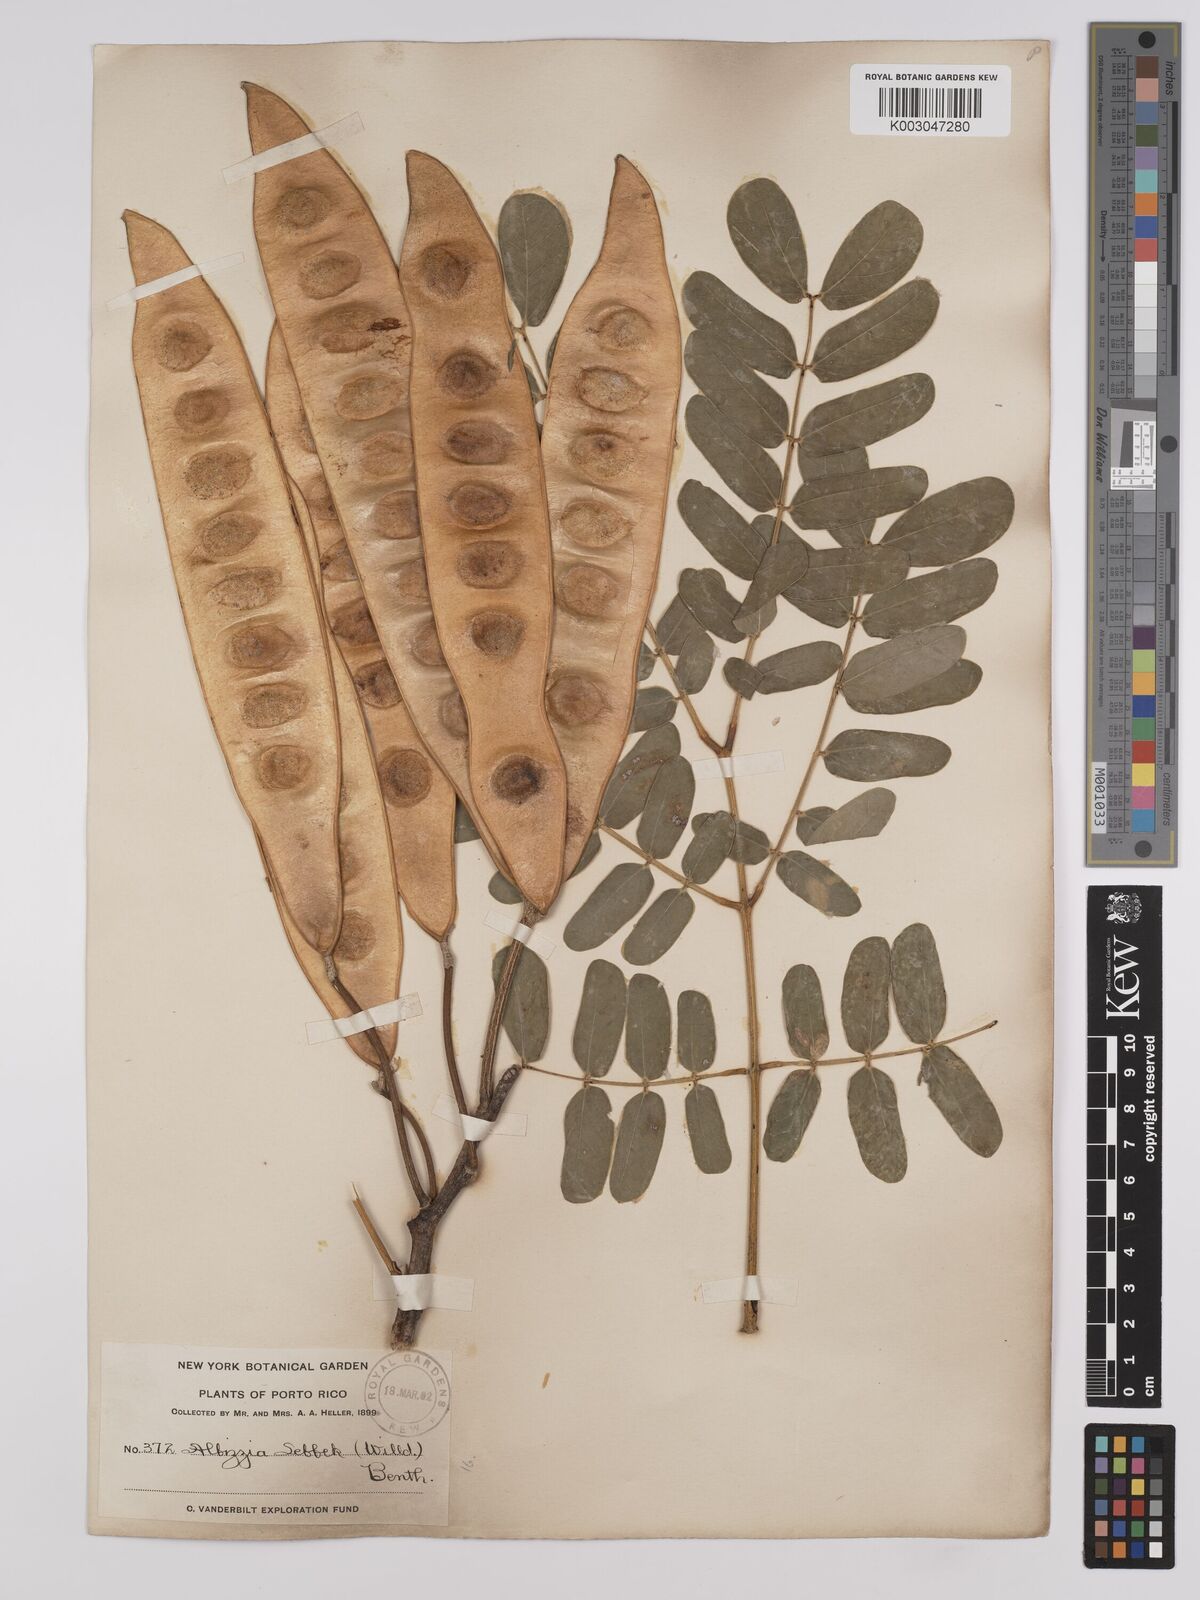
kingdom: Plantae
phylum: Tracheophyta
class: Magnoliopsida
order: Fabales
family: Fabaceae
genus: Albizia
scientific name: Albizia lebbeck
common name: Woman's tongue
